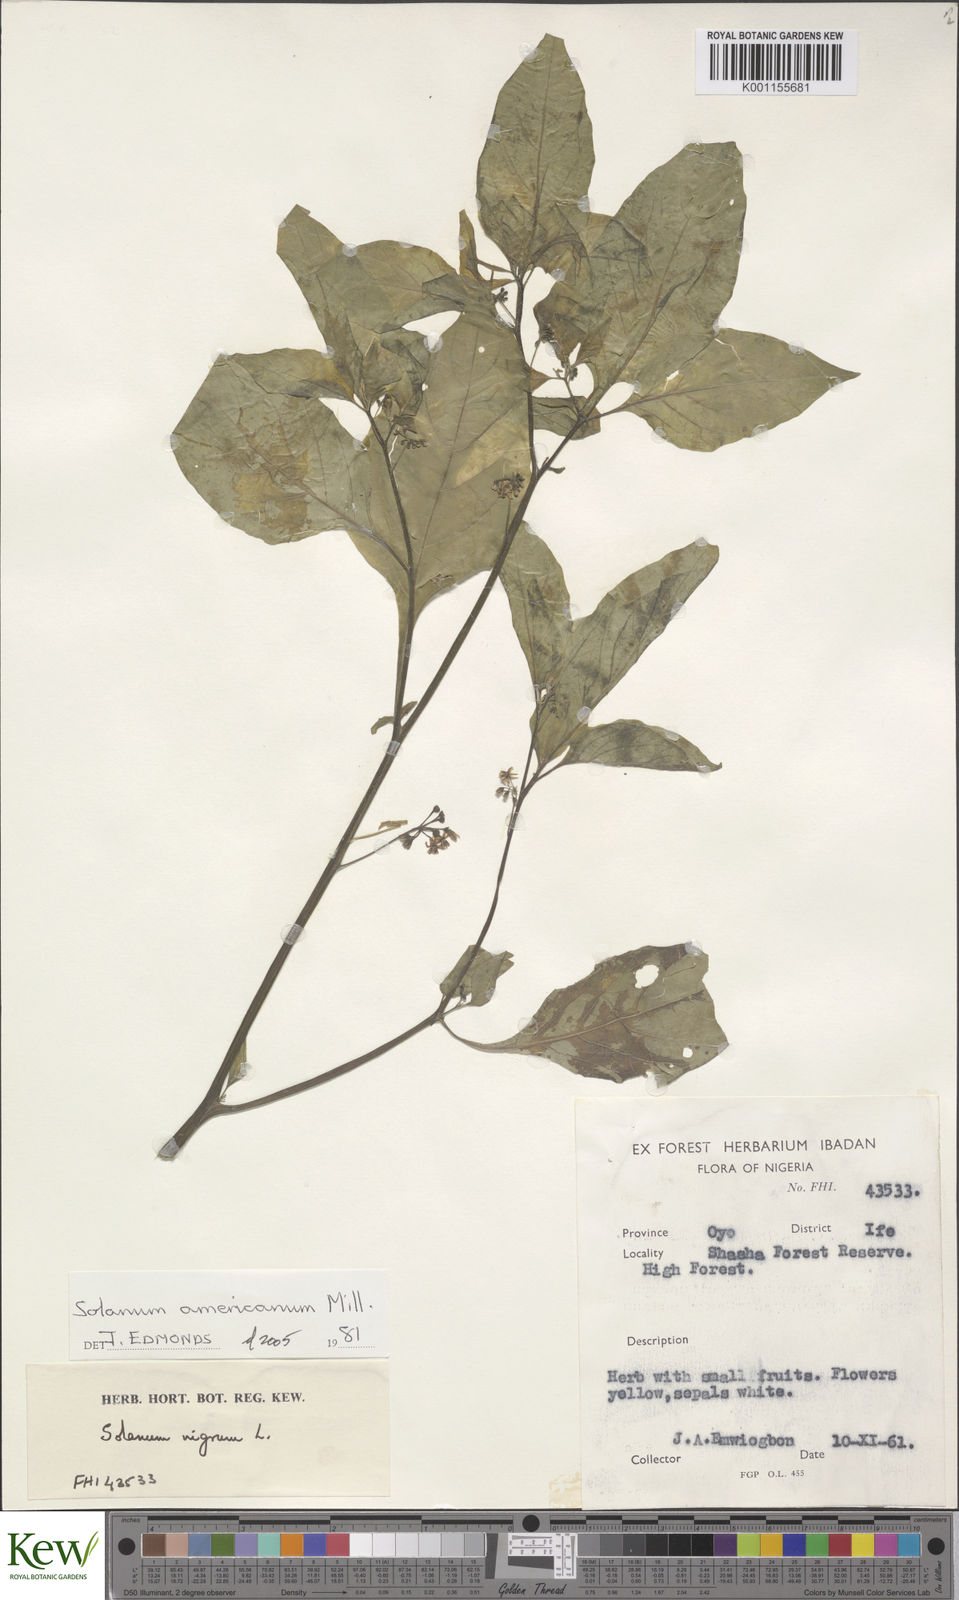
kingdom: Plantae
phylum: Tracheophyta
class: Magnoliopsida
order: Solanales
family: Solanaceae
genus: Solanum
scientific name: Solanum scabrum
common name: Garden-huckleberry
